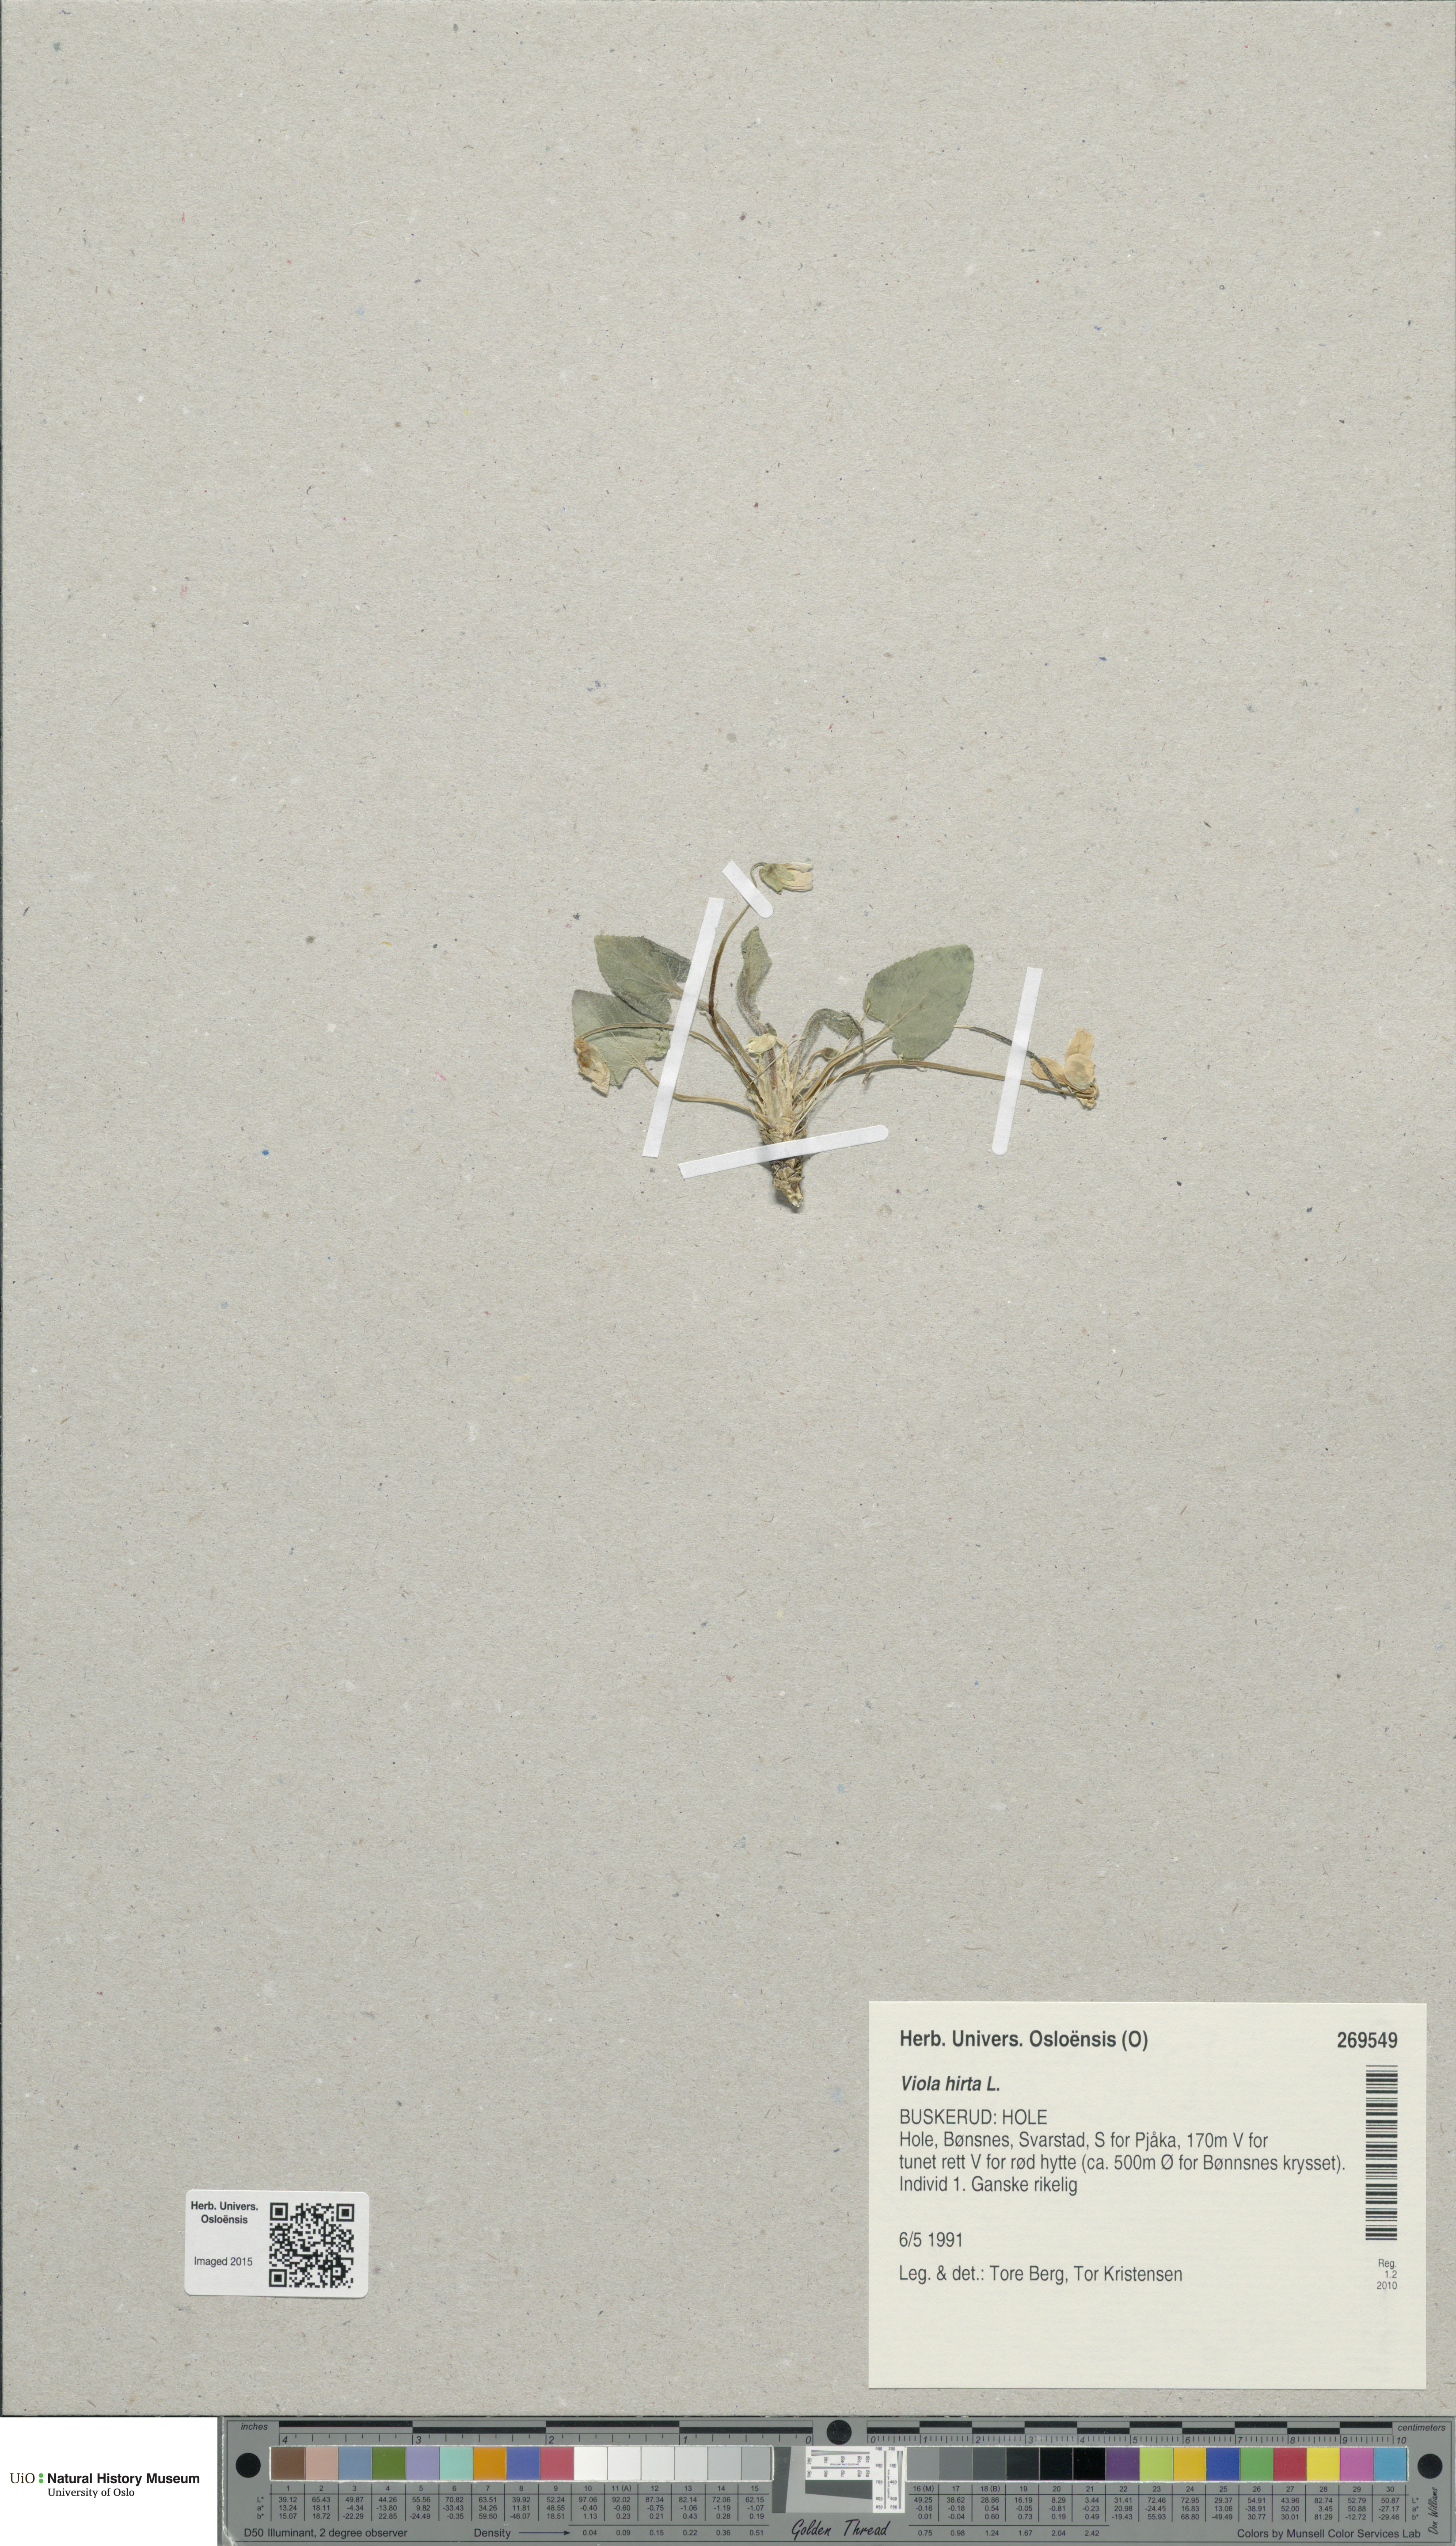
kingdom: Plantae
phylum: Tracheophyta
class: Magnoliopsida
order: Malpighiales
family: Violaceae
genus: Viola
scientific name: Viola hirta
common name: Hairy violet
